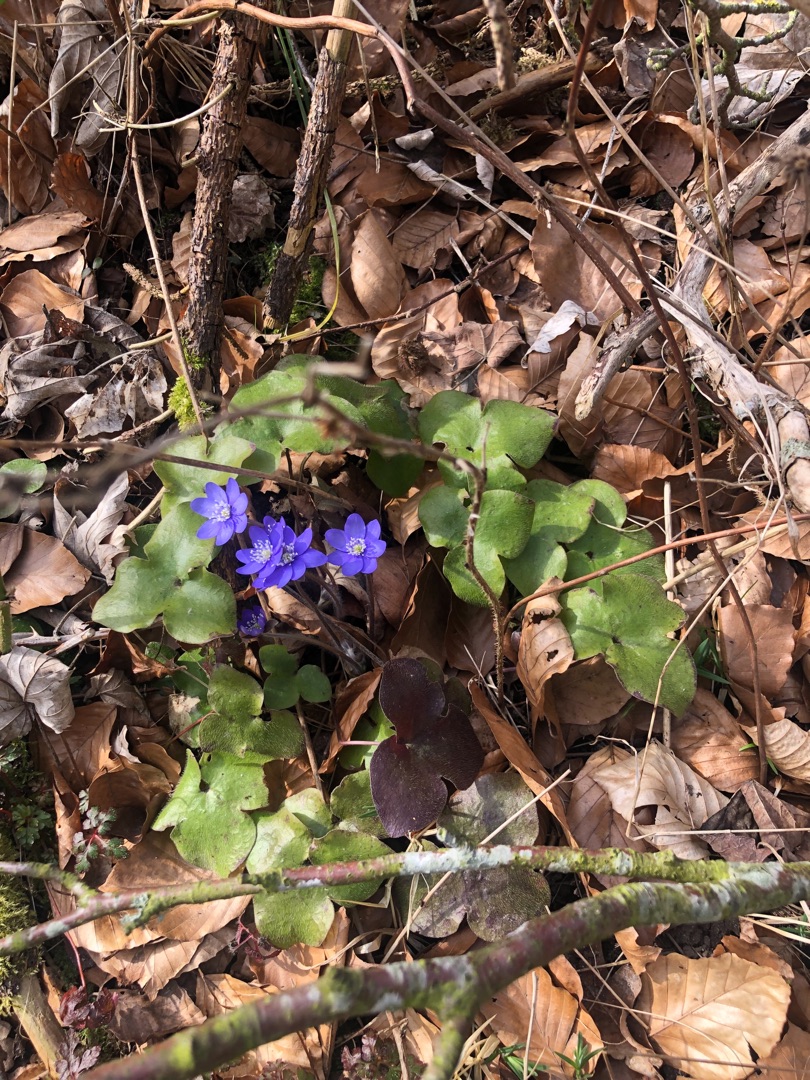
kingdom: Plantae
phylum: Tracheophyta
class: Magnoliopsida
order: Ranunculales
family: Ranunculaceae
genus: Hepatica
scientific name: Hepatica nobilis
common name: Blå anemone
